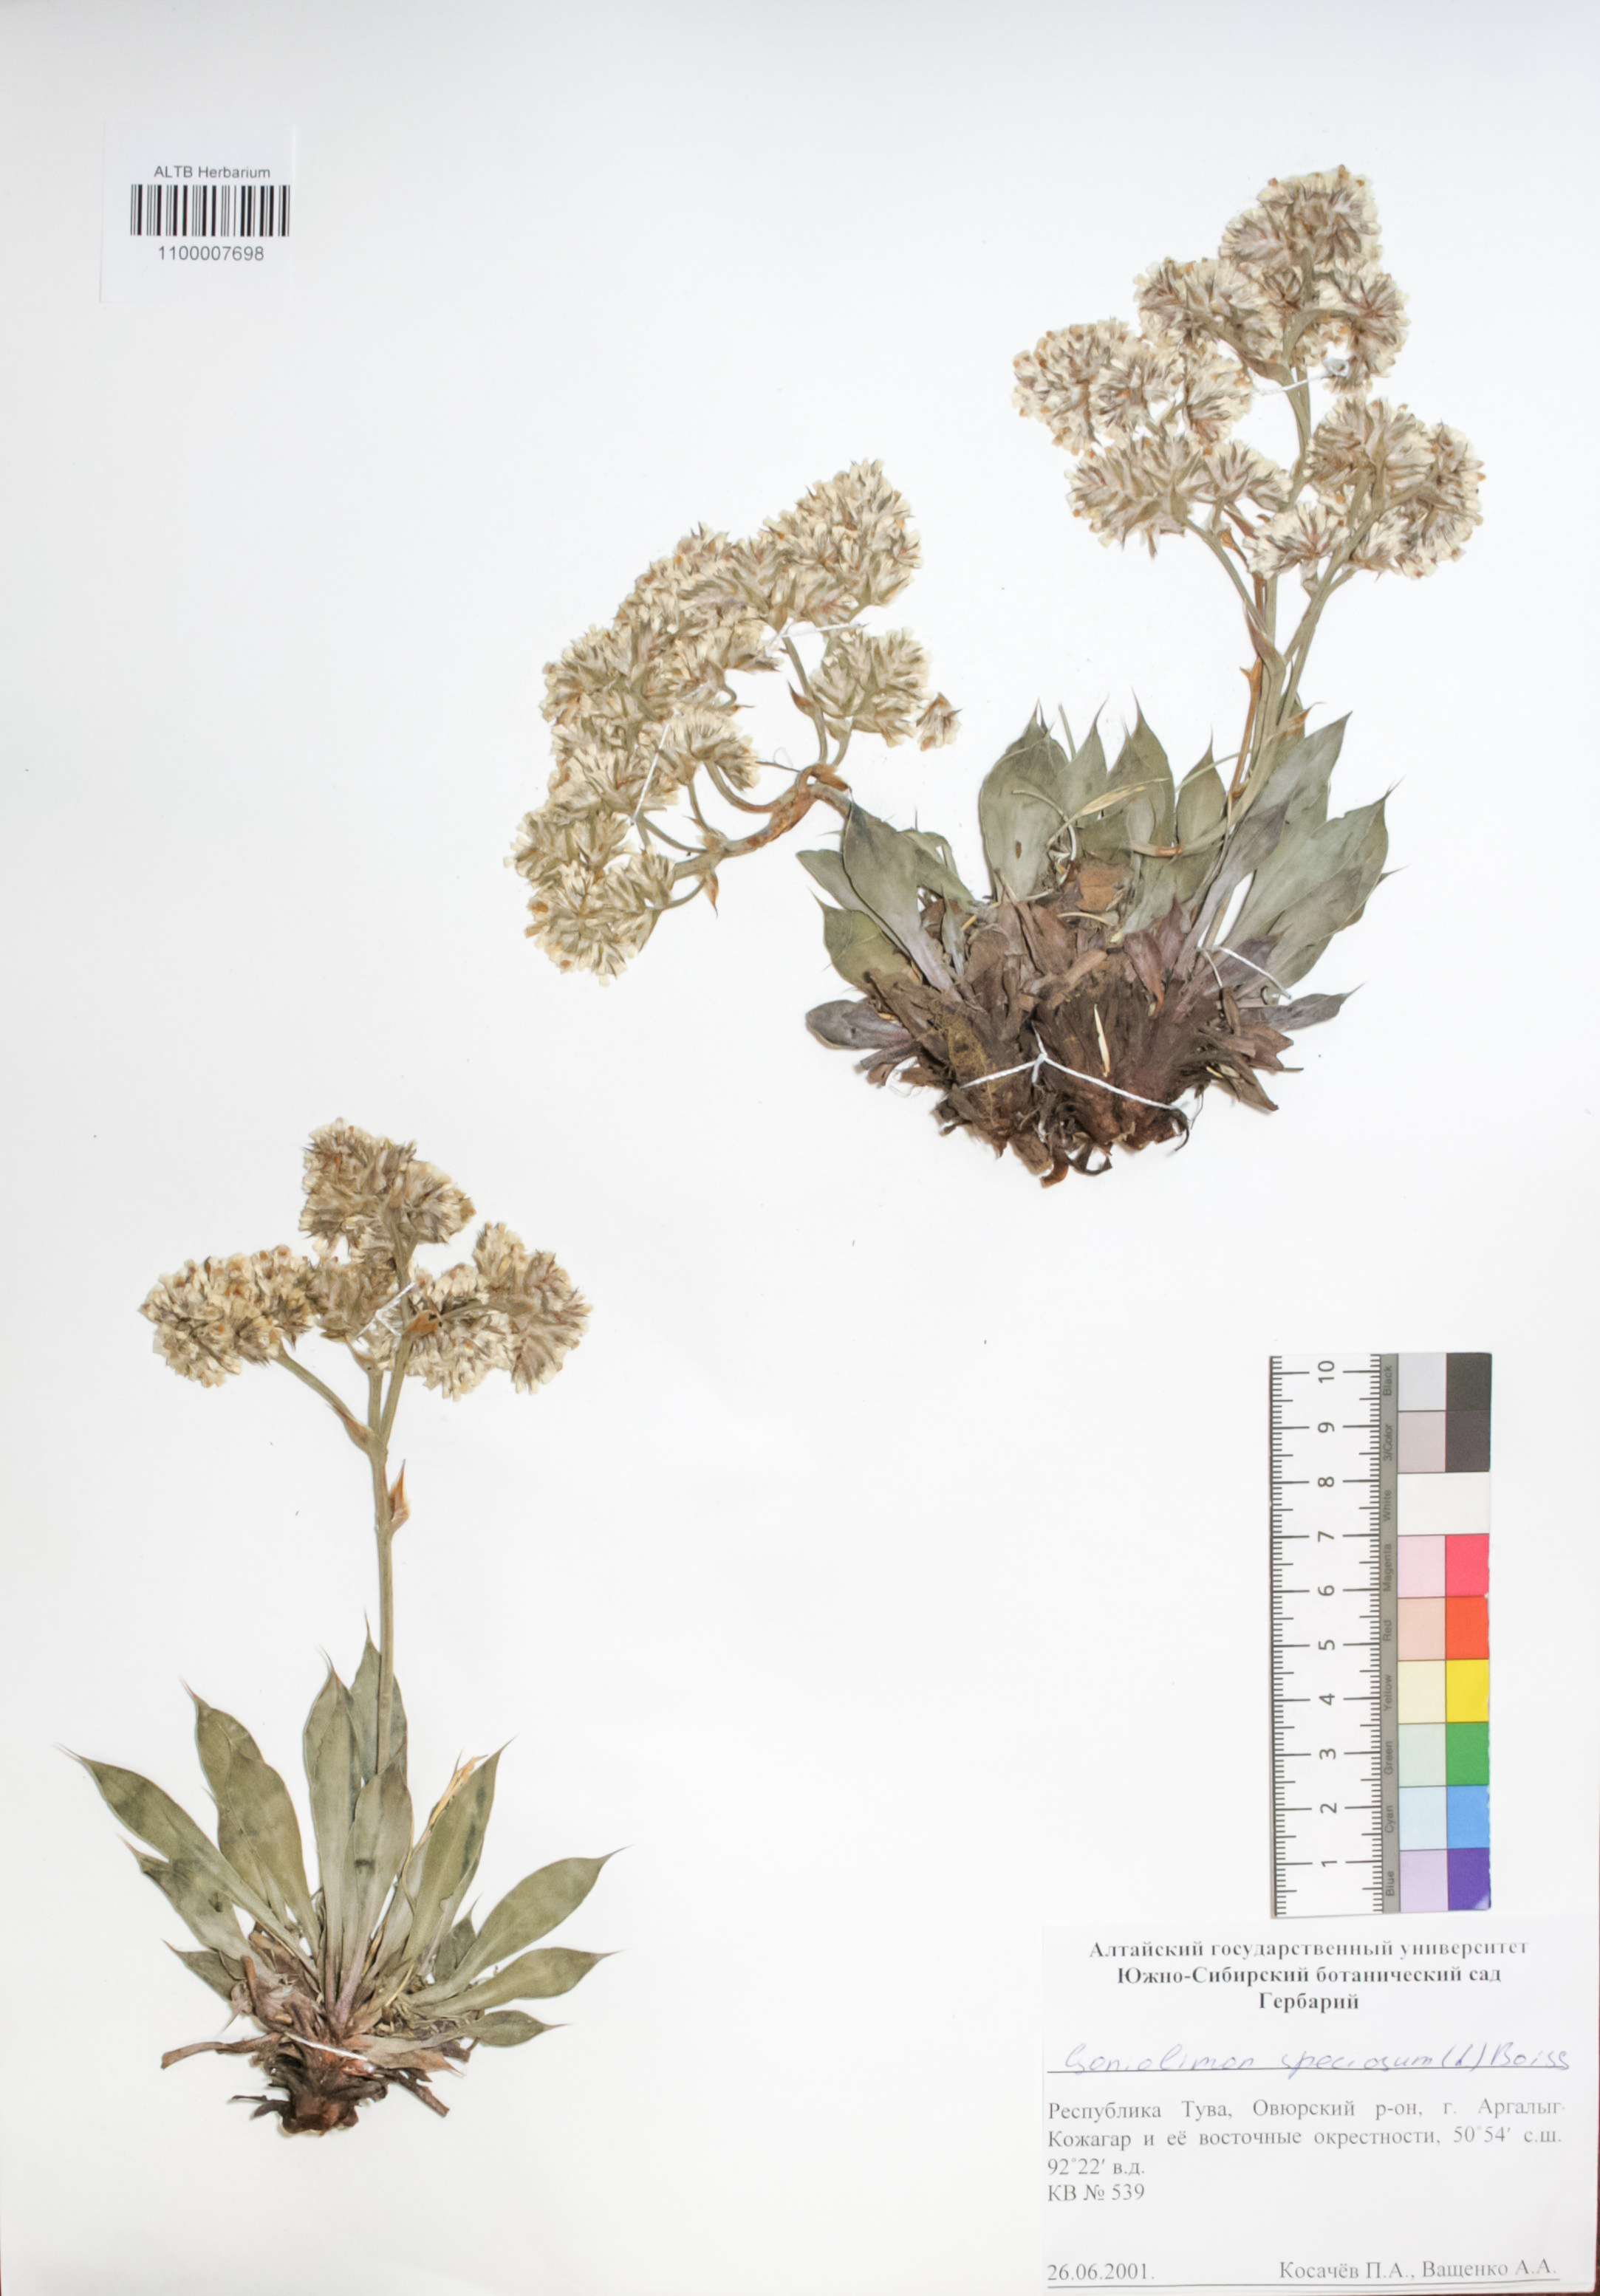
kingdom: Plantae
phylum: Tracheophyta
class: Magnoliopsida
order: Caryophyllales
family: Plumbaginaceae
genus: Goniolimon
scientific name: Goniolimon speciosum
